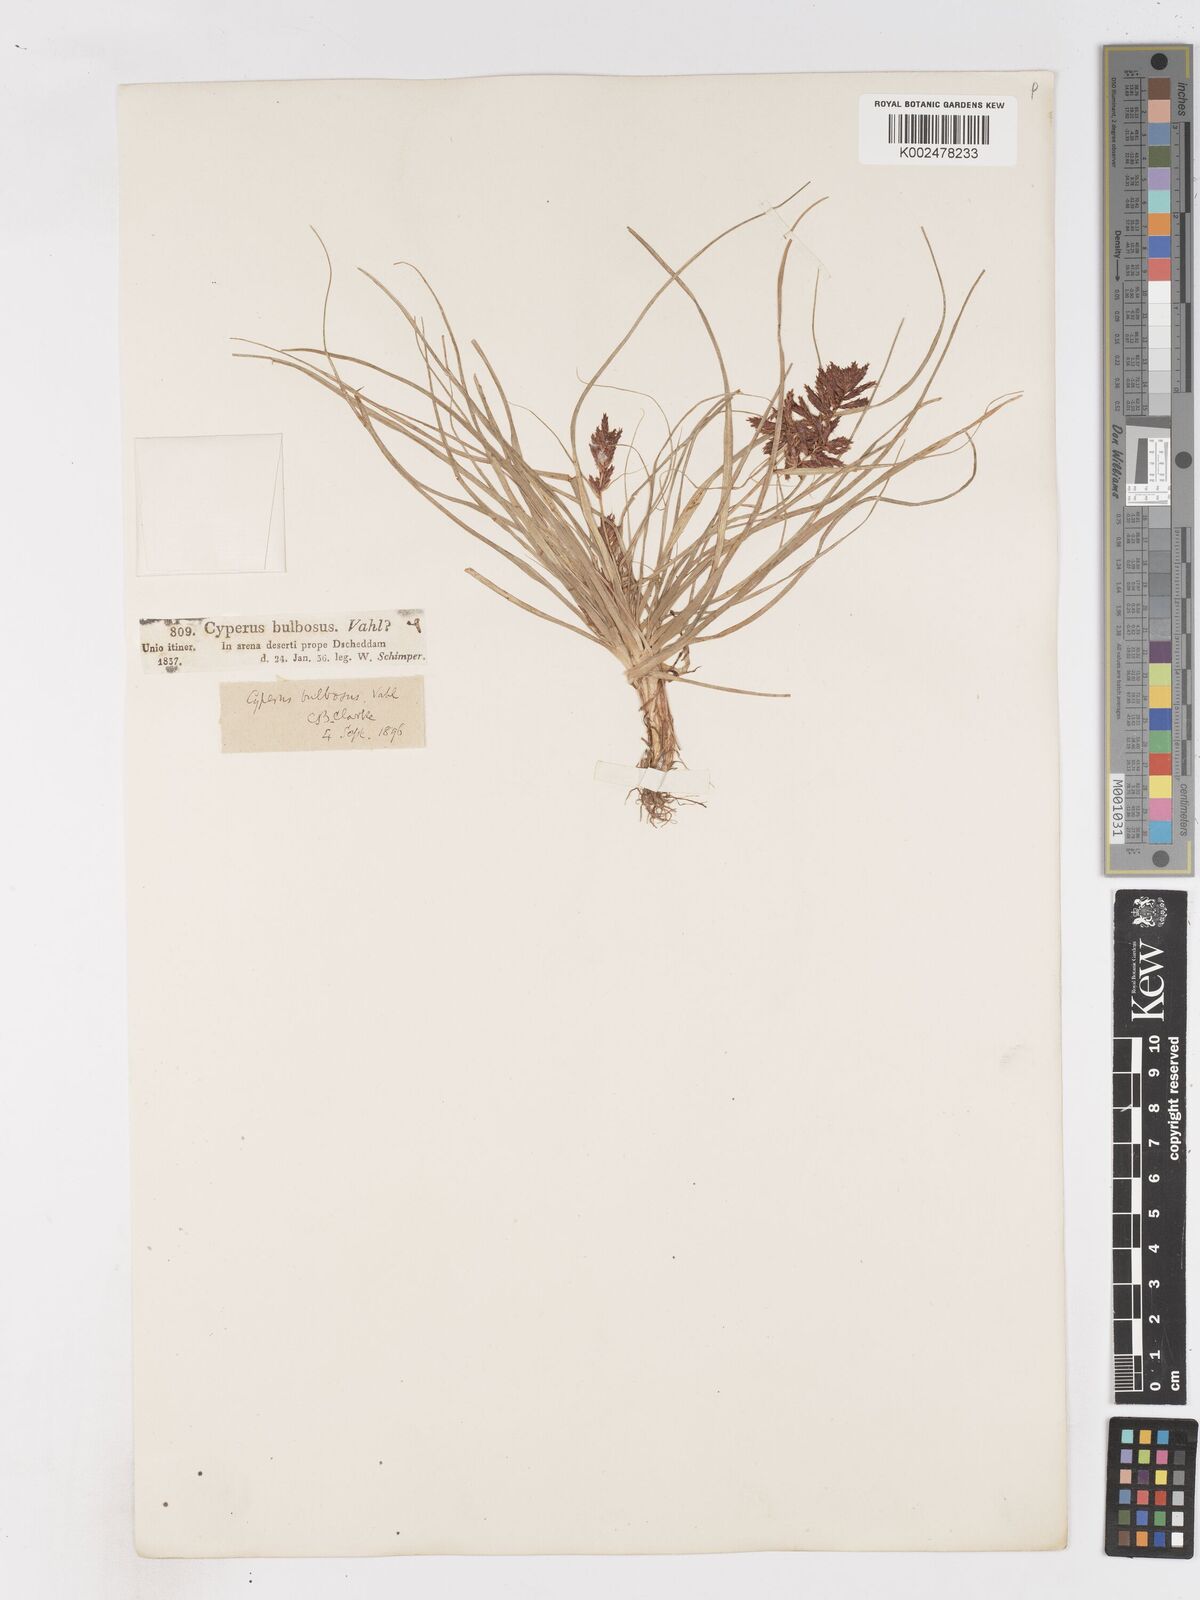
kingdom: Plantae
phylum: Tracheophyta
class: Liliopsida
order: Poales
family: Cyperaceae
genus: Cyperus
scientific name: Cyperus bulbosus
